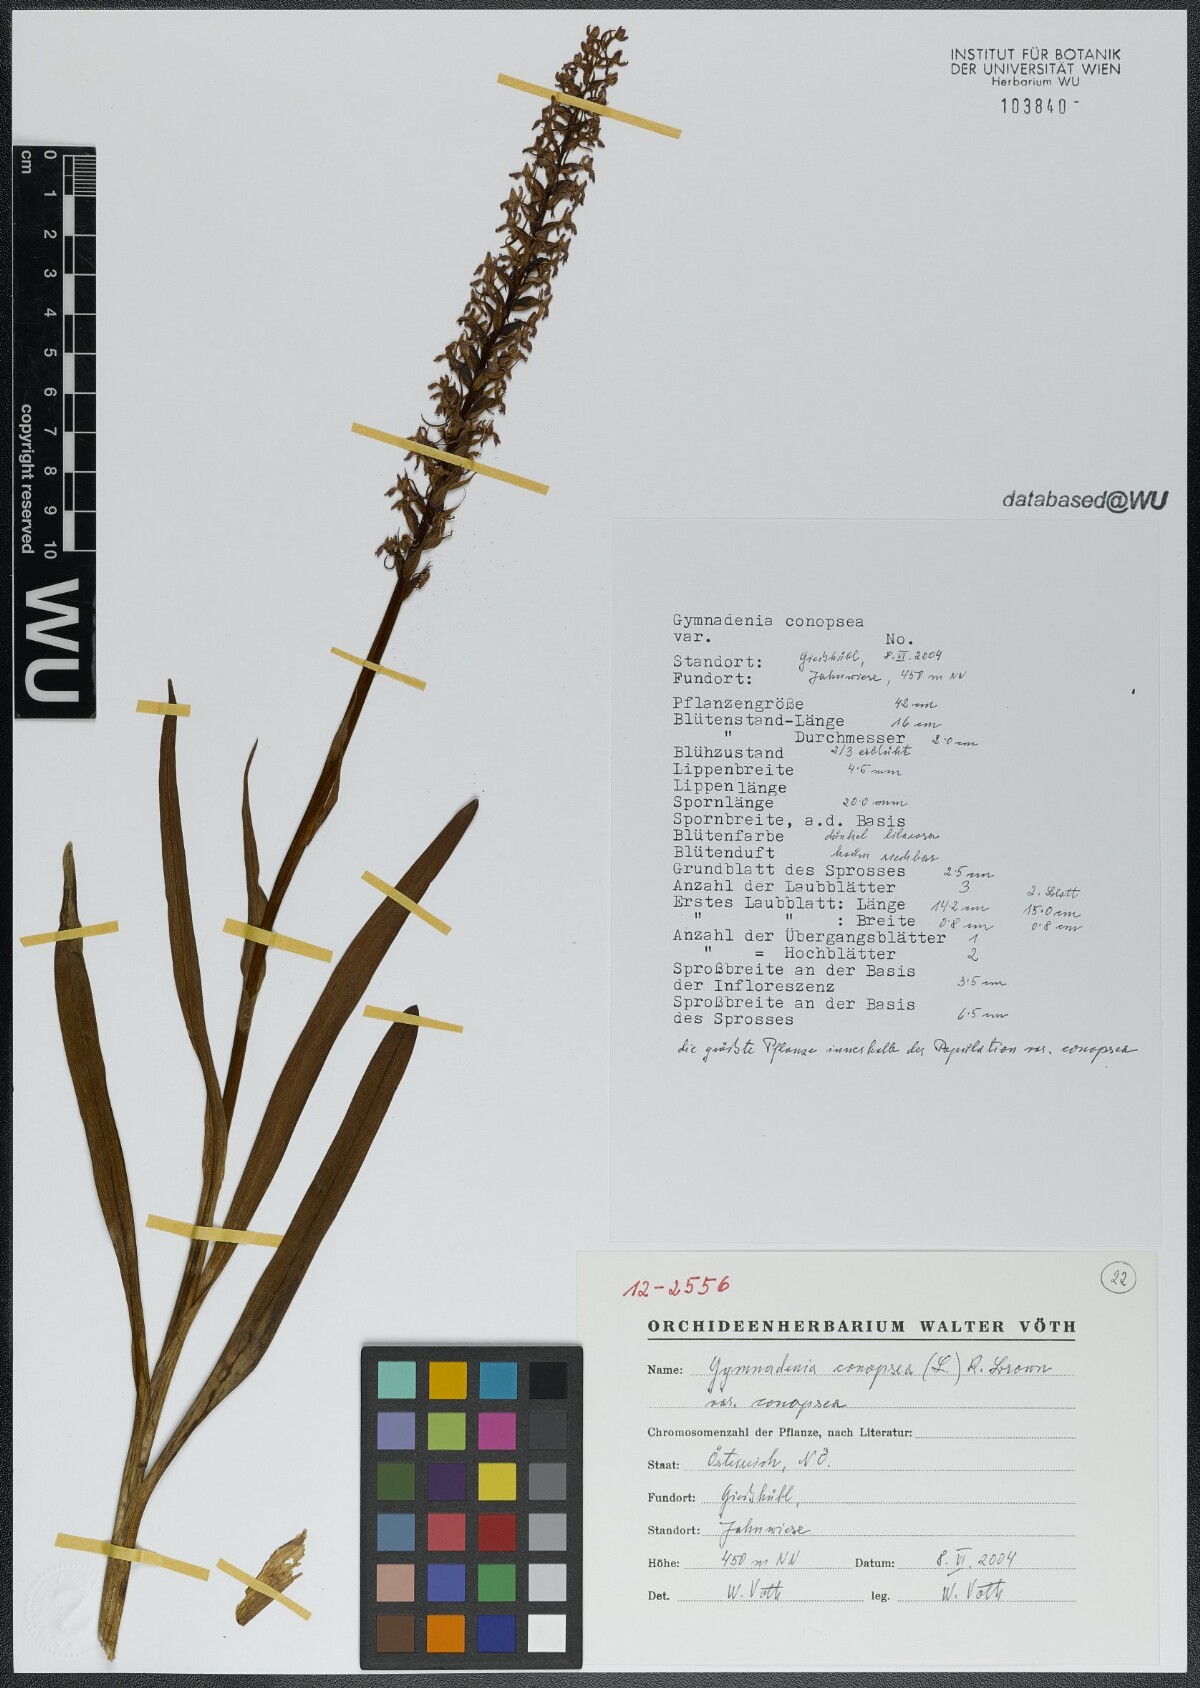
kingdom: Plantae
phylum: Tracheophyta
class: Liliopsida
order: Asparagales
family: Orchidaceae
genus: Gymnadenia
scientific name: Gymnadenia conopsea
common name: Fragrant orchid
